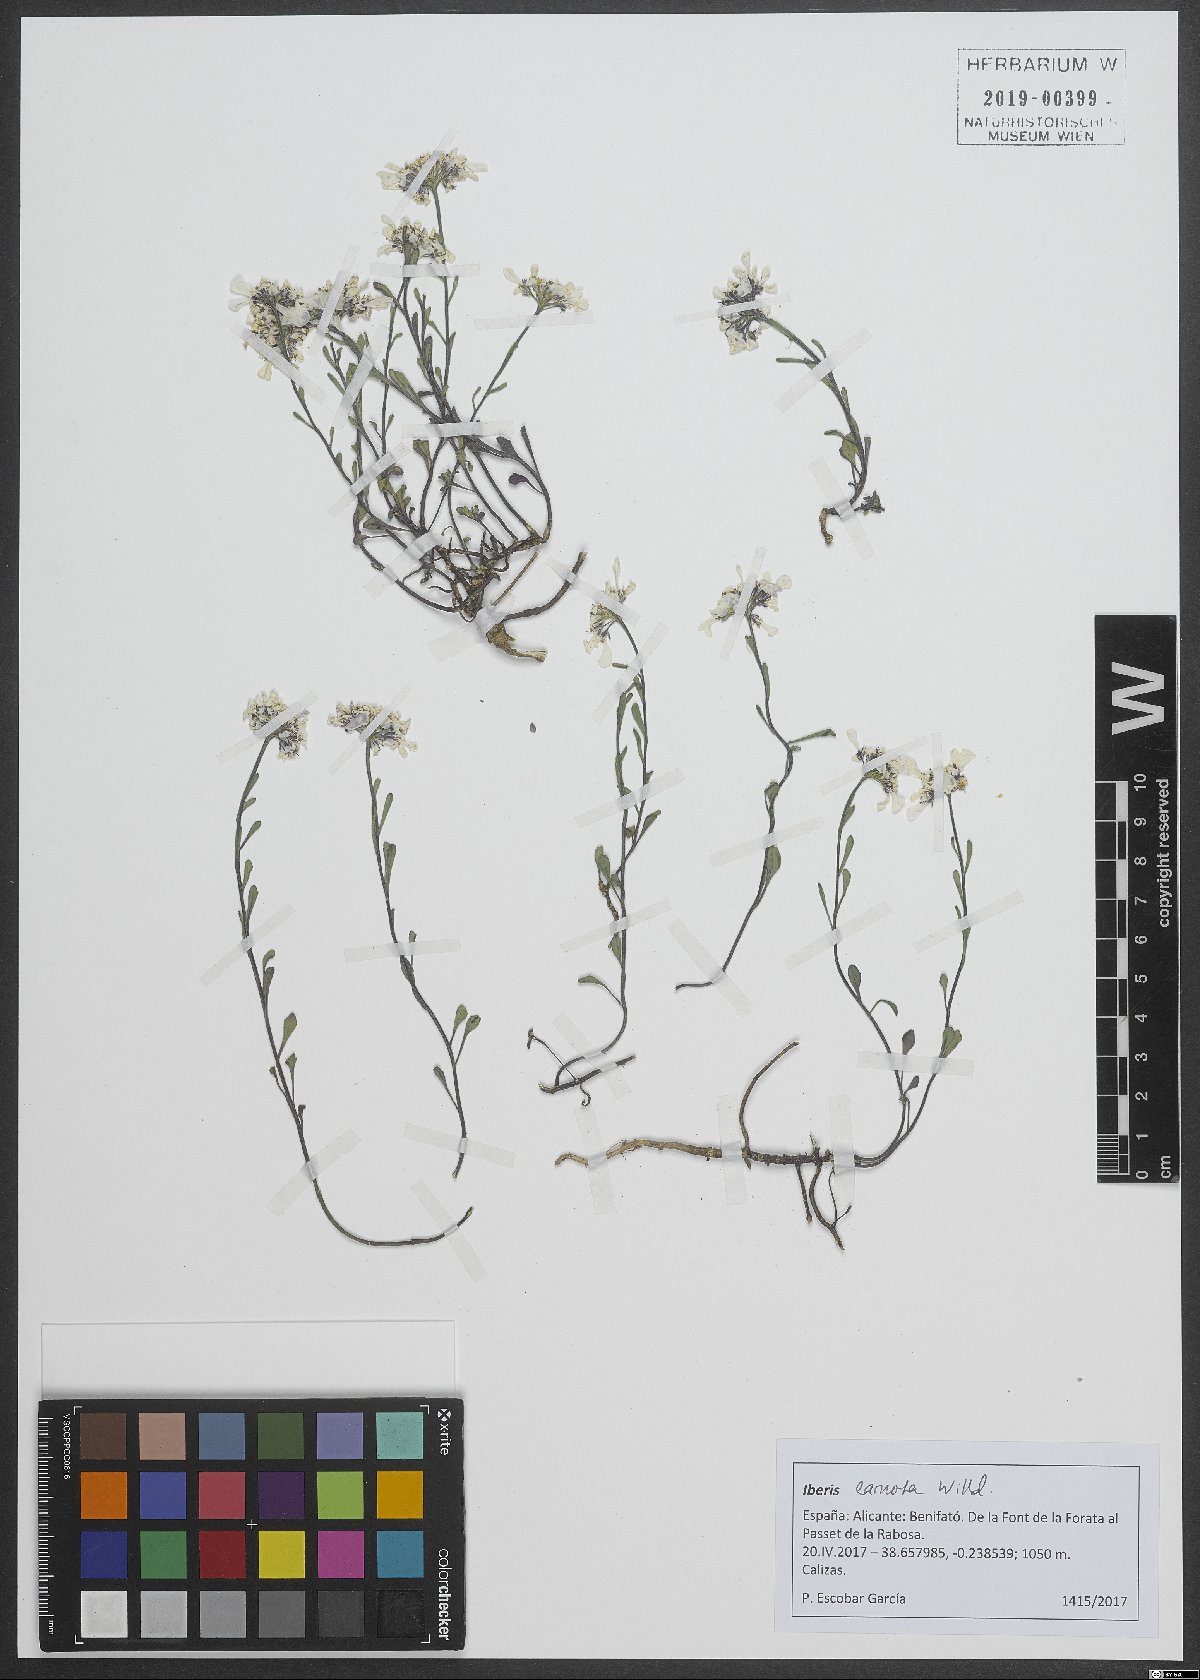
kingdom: Plantae
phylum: Tracheophyta
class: Magnoliopsida
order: Brassicales
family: Brassicaceae
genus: Iberis
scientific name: Iberis carnosa
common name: Pruit's candytuft
